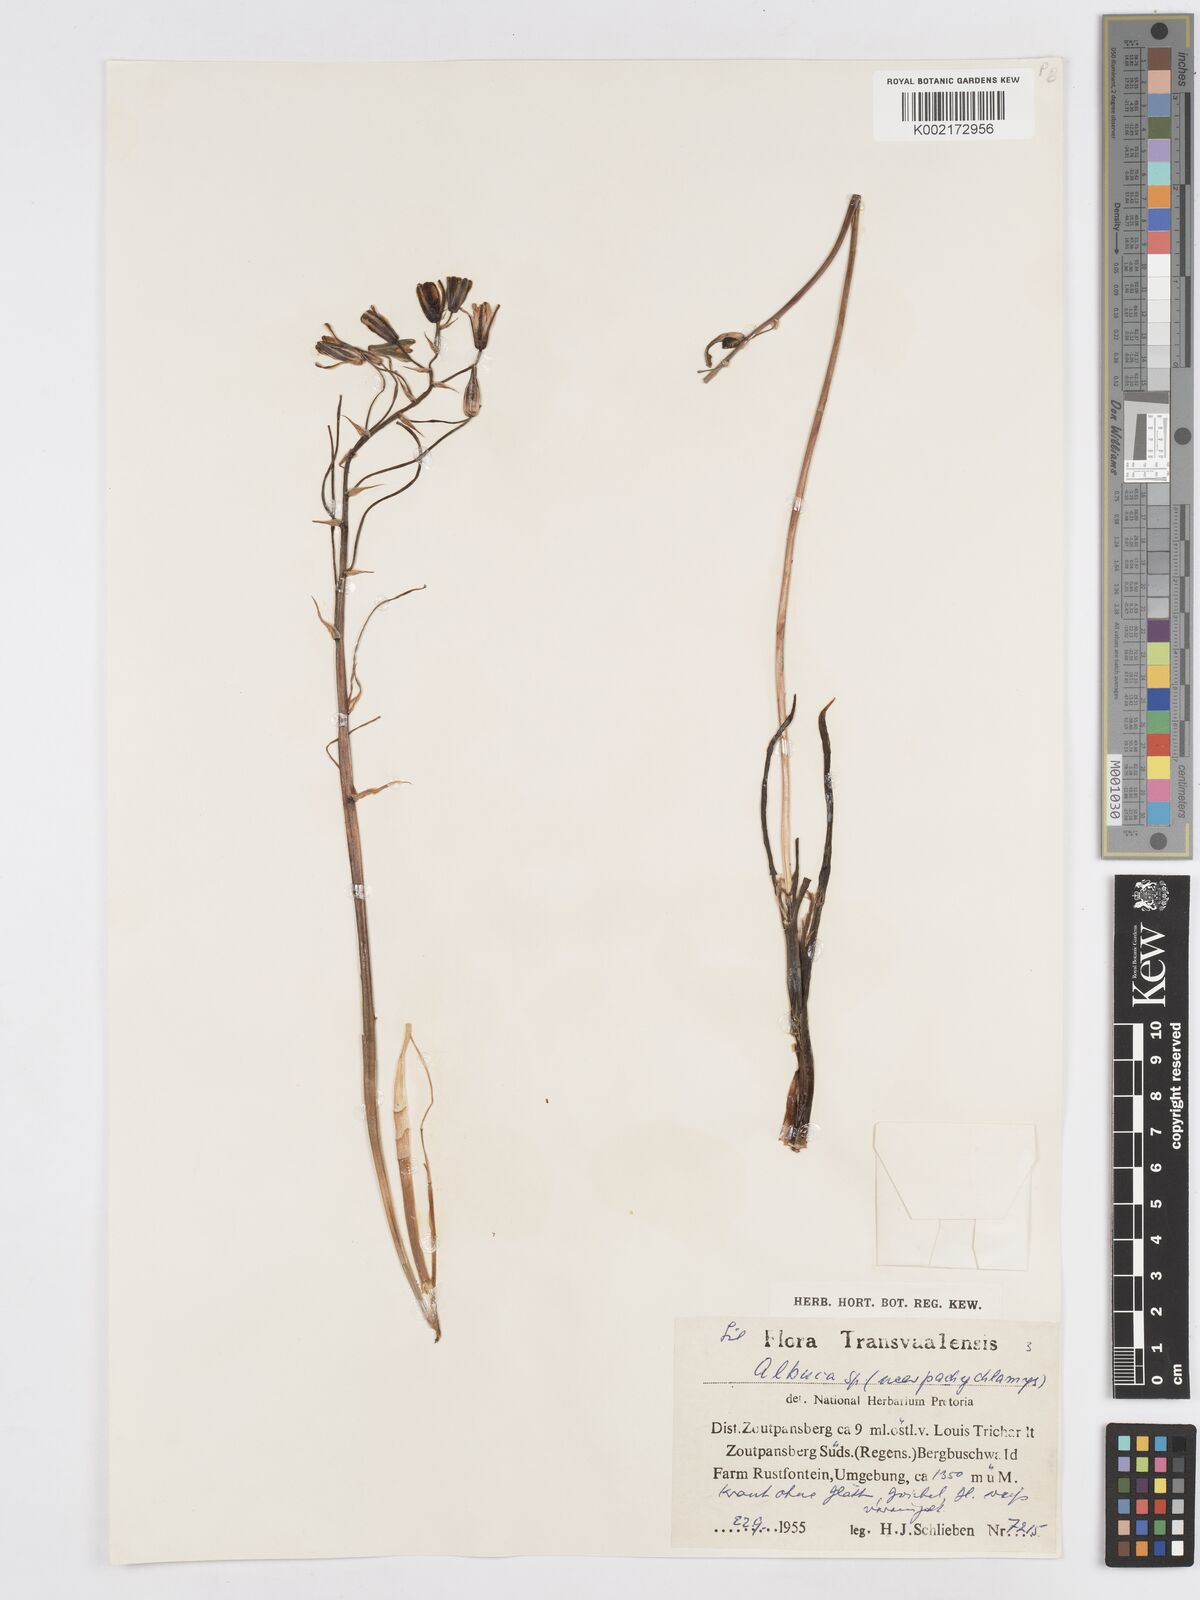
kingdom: Plantae
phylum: Tracheophyta
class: Liliopsida
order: Asparagales
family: Asparagaceae
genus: Albuca
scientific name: Albuca setosa
